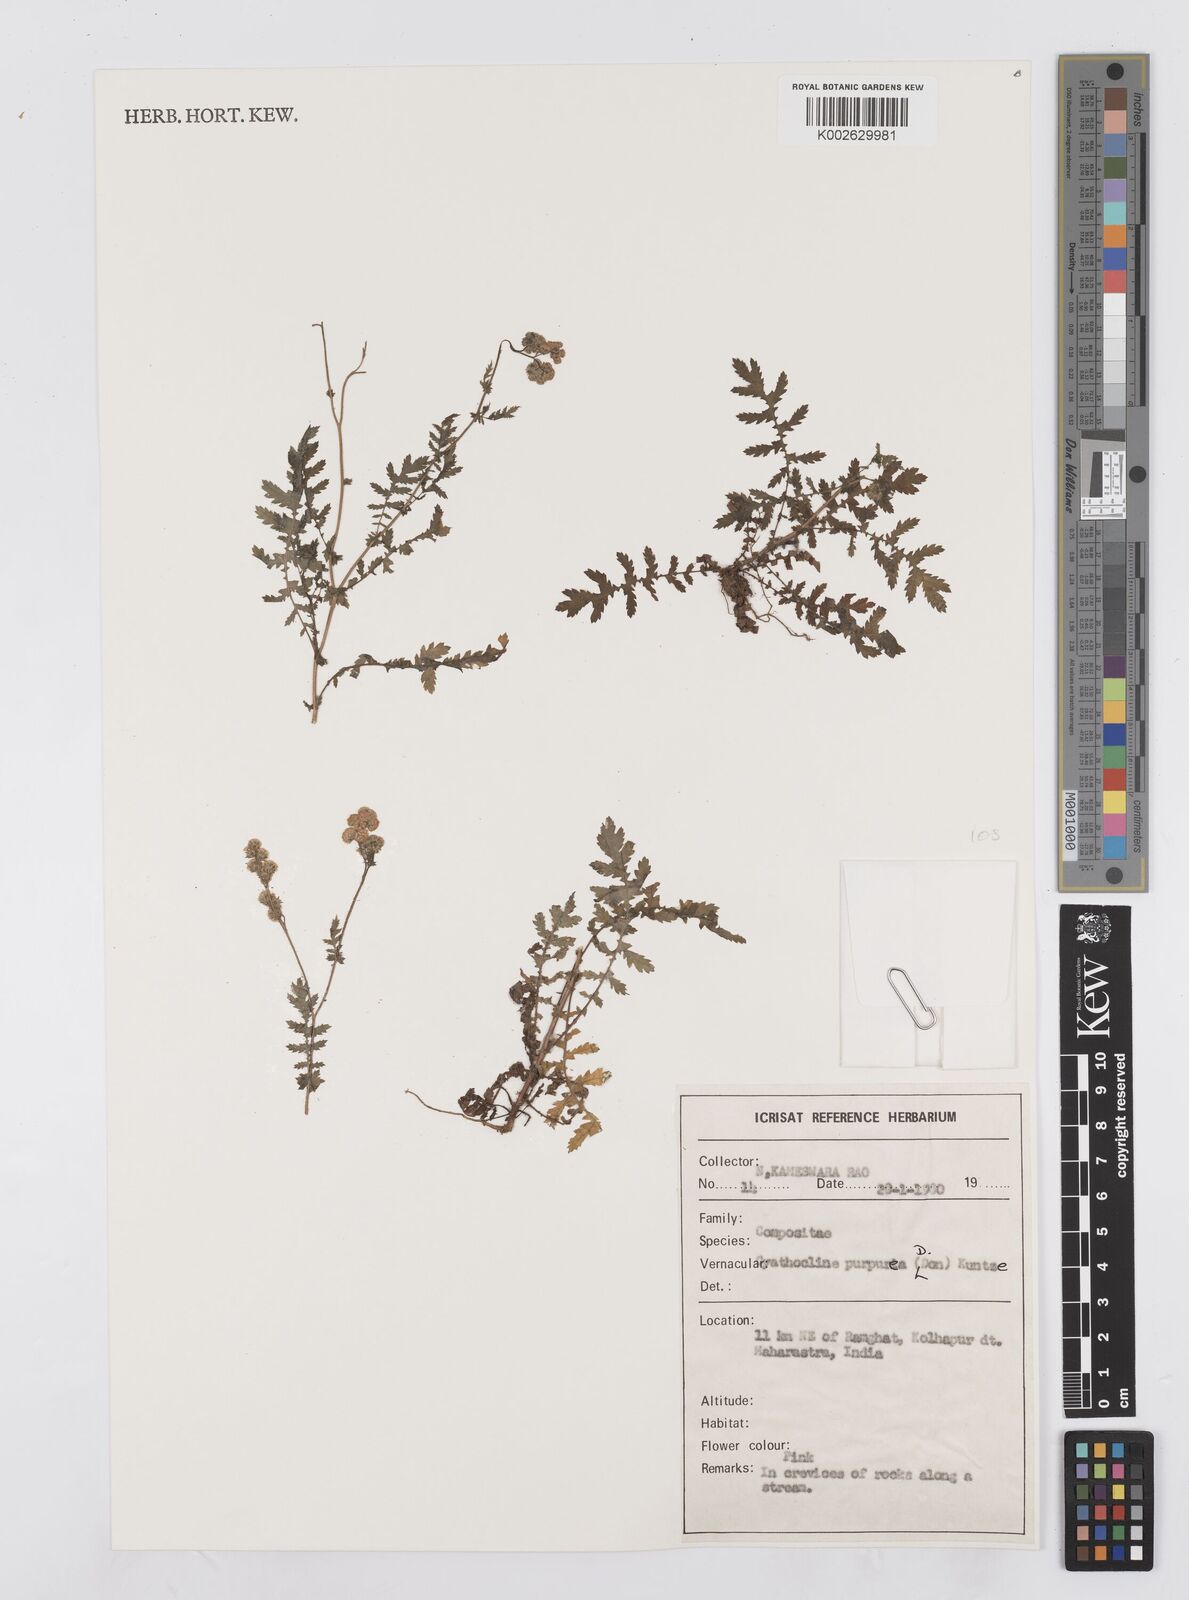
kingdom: Plantae
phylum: Tracheophyta
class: Magnoliopsida
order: Asterales
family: Asteraceae
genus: Cyathocline
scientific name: Cyathocline purpurea
